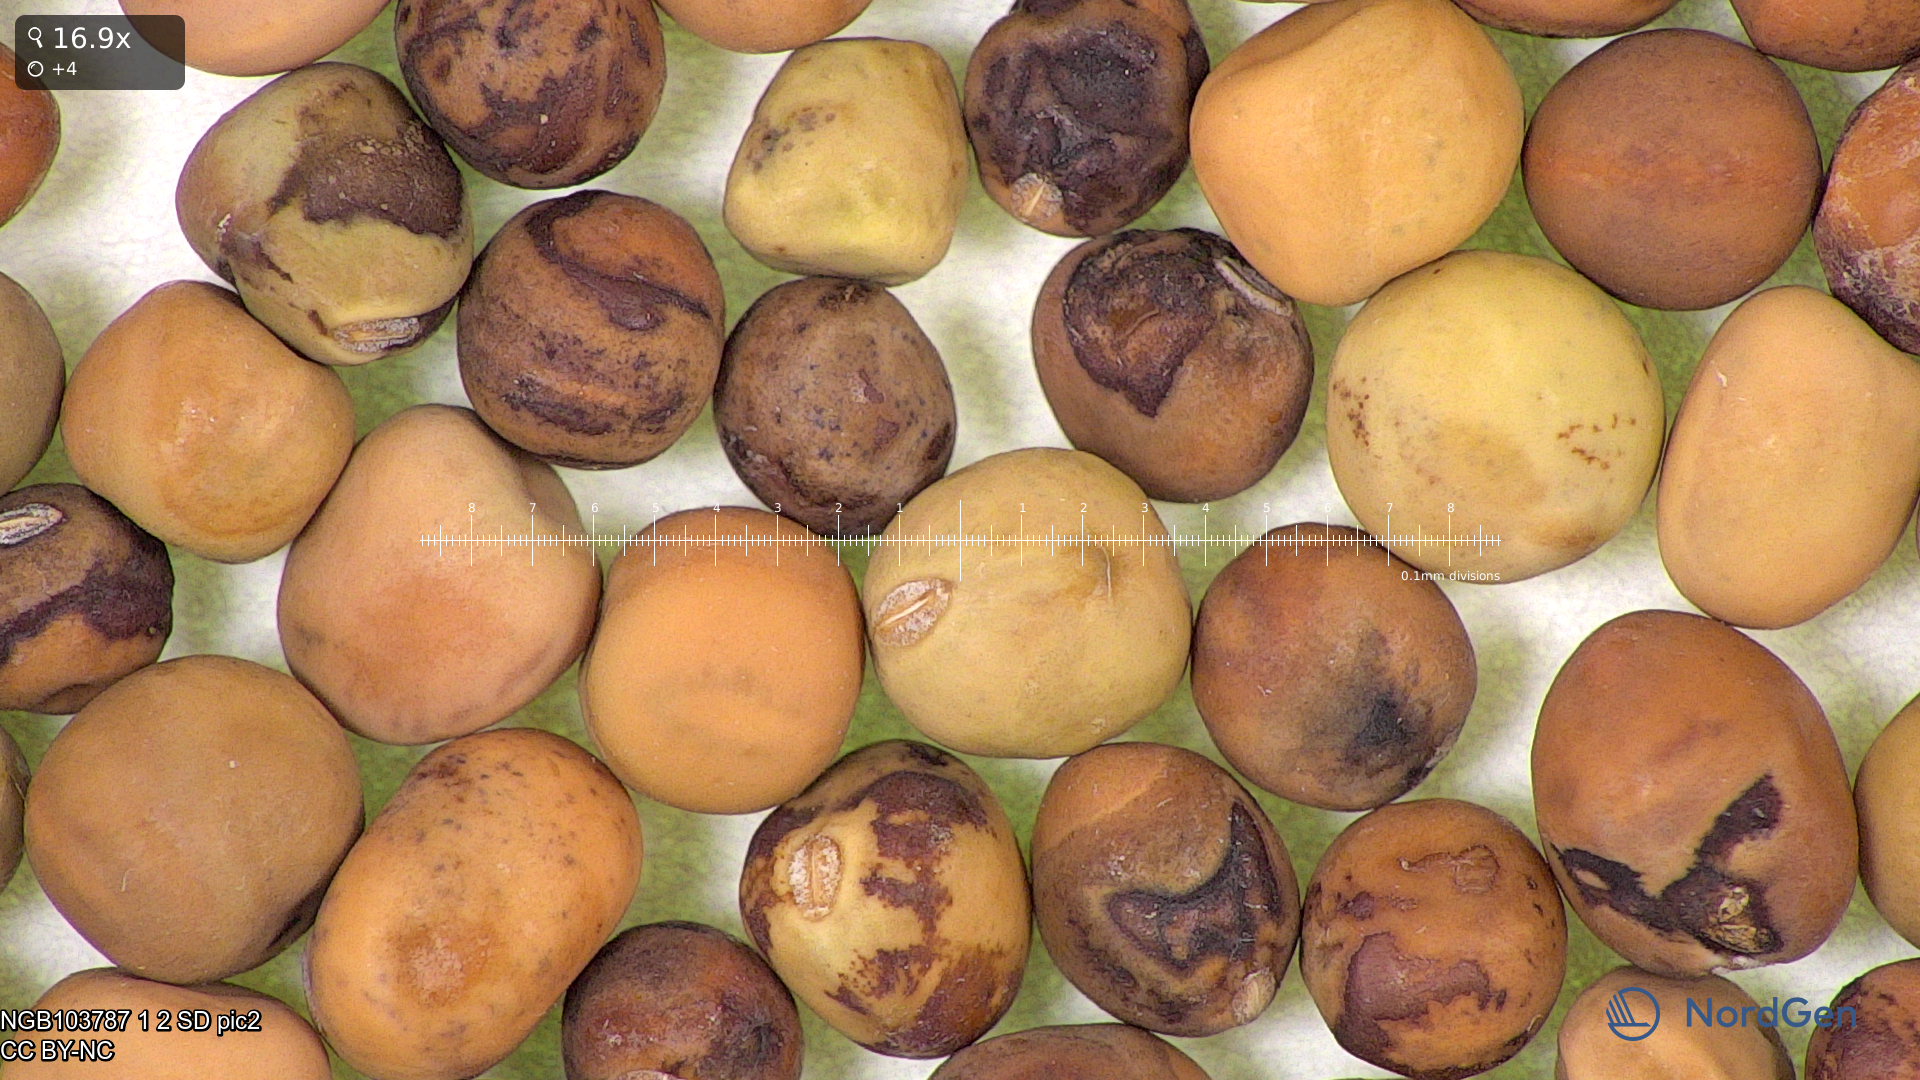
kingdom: Plantae
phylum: Tracheophyta
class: Magnoliopsida
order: Fabales
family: Fabaceae
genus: Lathyrus
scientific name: Lathyrus oleraceus
